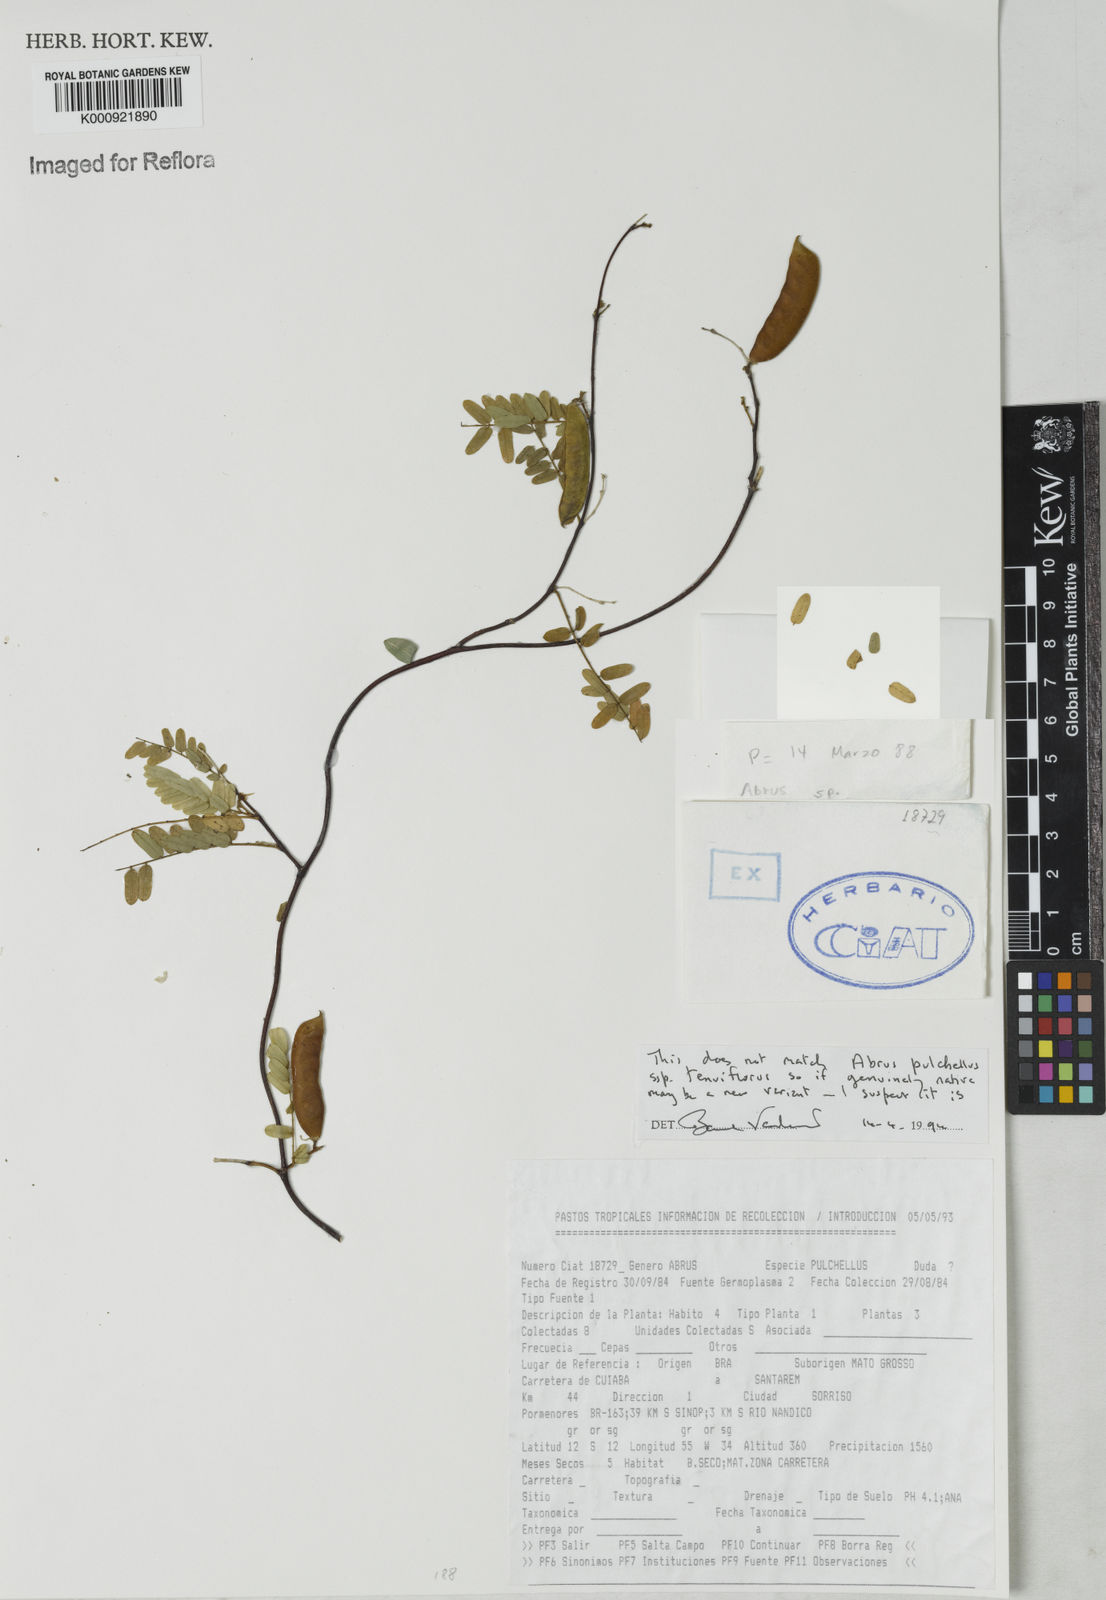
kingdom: Plantae
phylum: Tracheophyta
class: Magnoliopsida
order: Fabales
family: Fabaceae
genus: Abrus
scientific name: Abrus melanospermus
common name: Licorice-root
